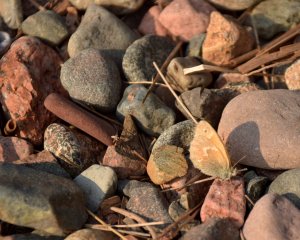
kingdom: Animalia
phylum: Arthropoda
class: Insecta
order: Lepidoptera
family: Nymphalidae
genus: Coenonympha
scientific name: Coenonympha tullia
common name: Large Heath
